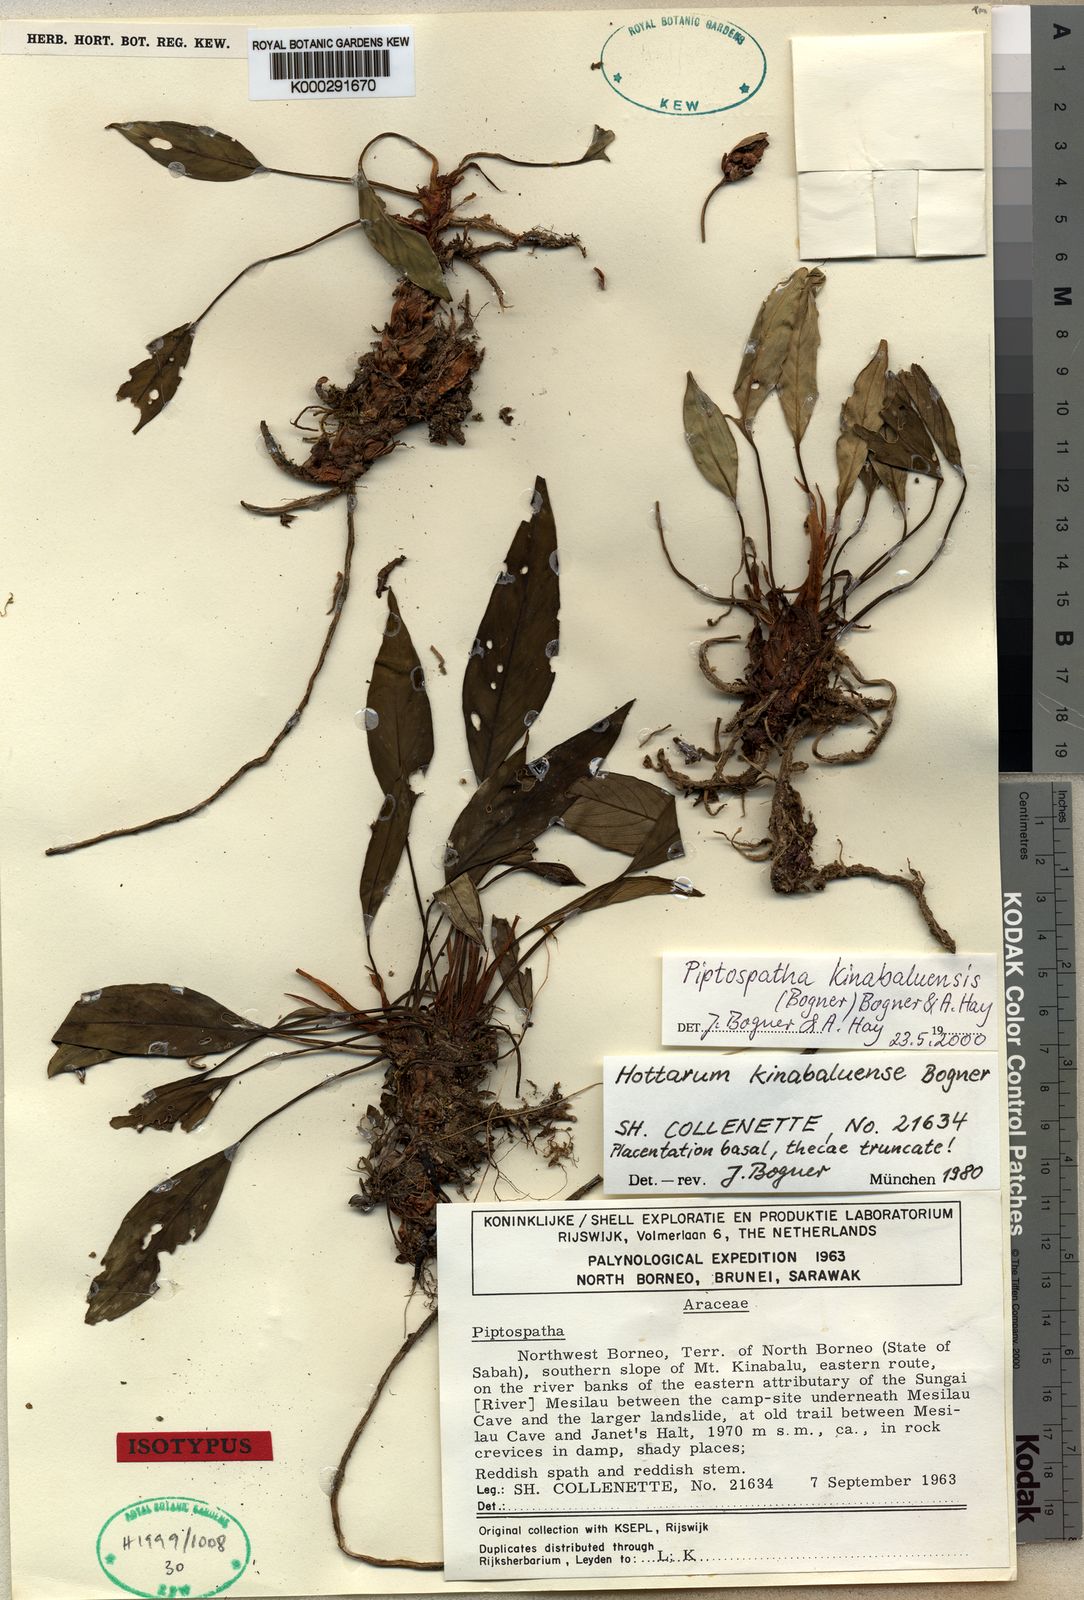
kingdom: Plantae
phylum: Tracheophyta
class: Liliopsida
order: Alismatales
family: Araceae
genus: Ooia
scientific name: Ooia kinabaluensis
